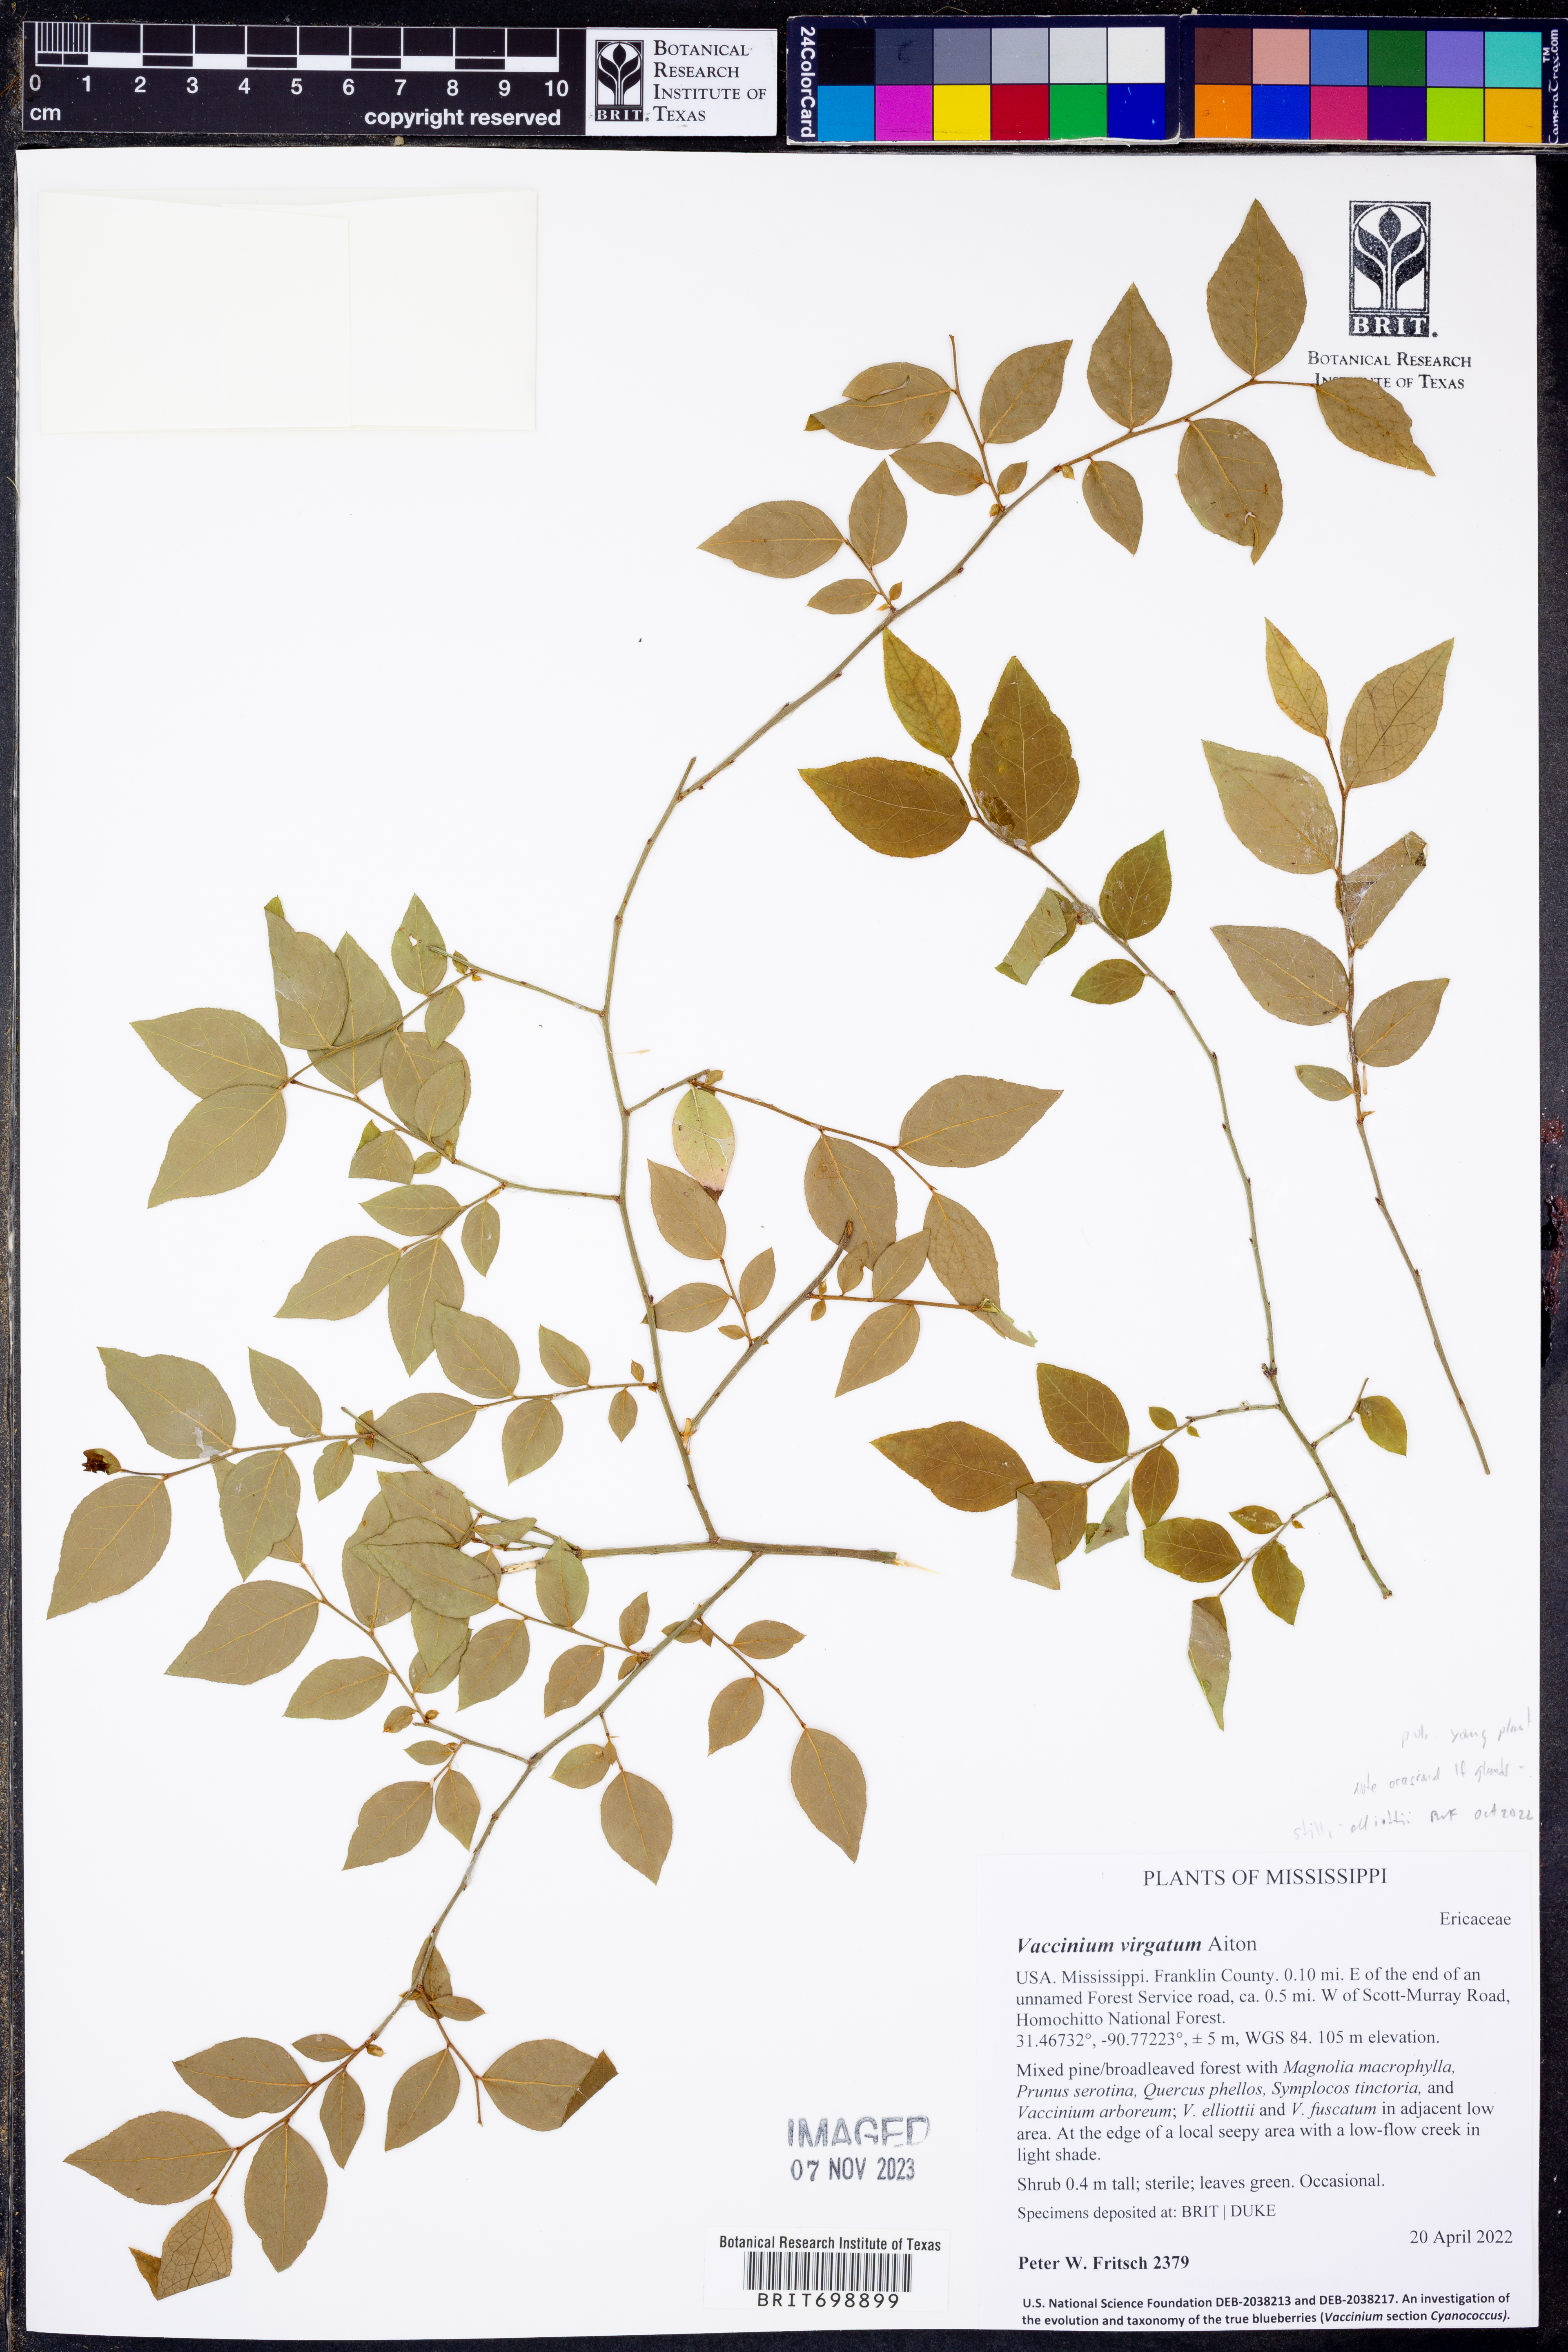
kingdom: Plantae
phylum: Tracheophyta
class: Magnoliopsida
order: Ericales
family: Ericaceae
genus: Vaccinium
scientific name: Vaccinium corymbosum
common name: Blueberry
